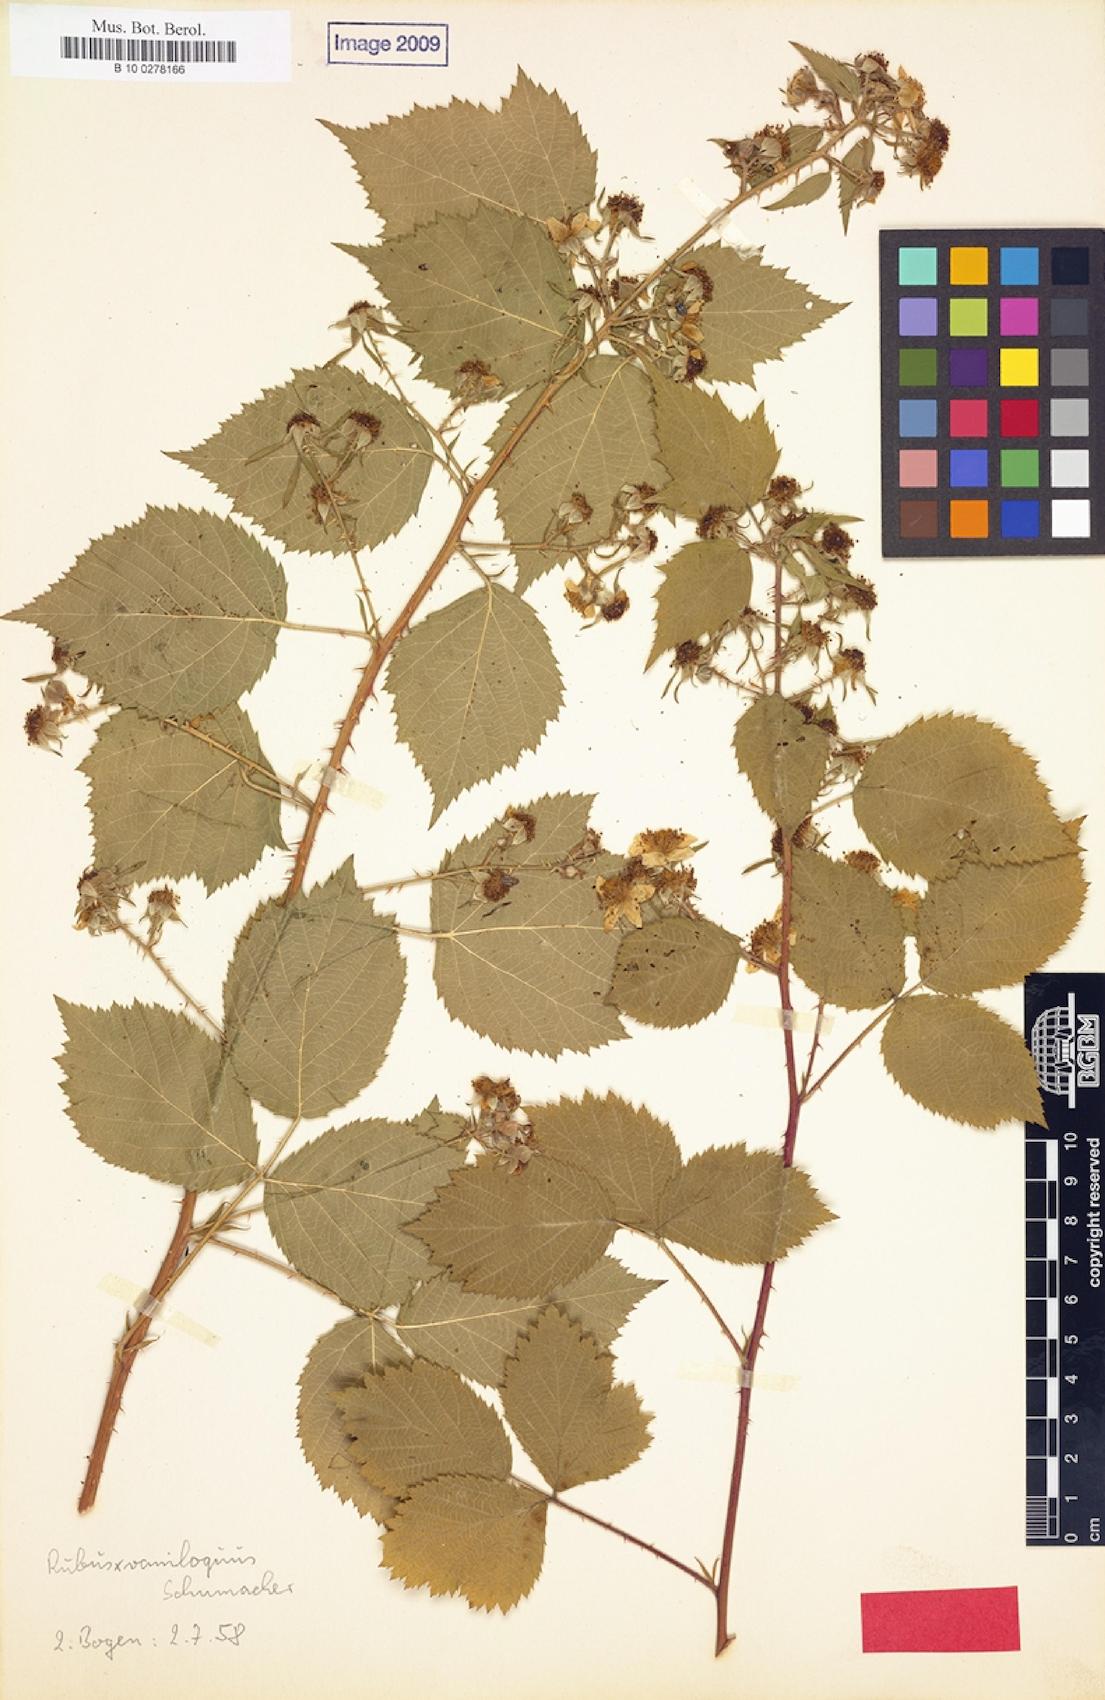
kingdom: Plantae
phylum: Tracheophyta
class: Magnoliopsida
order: Rosales
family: Rosaceae
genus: Rubus
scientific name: Rubus vaniloquus
